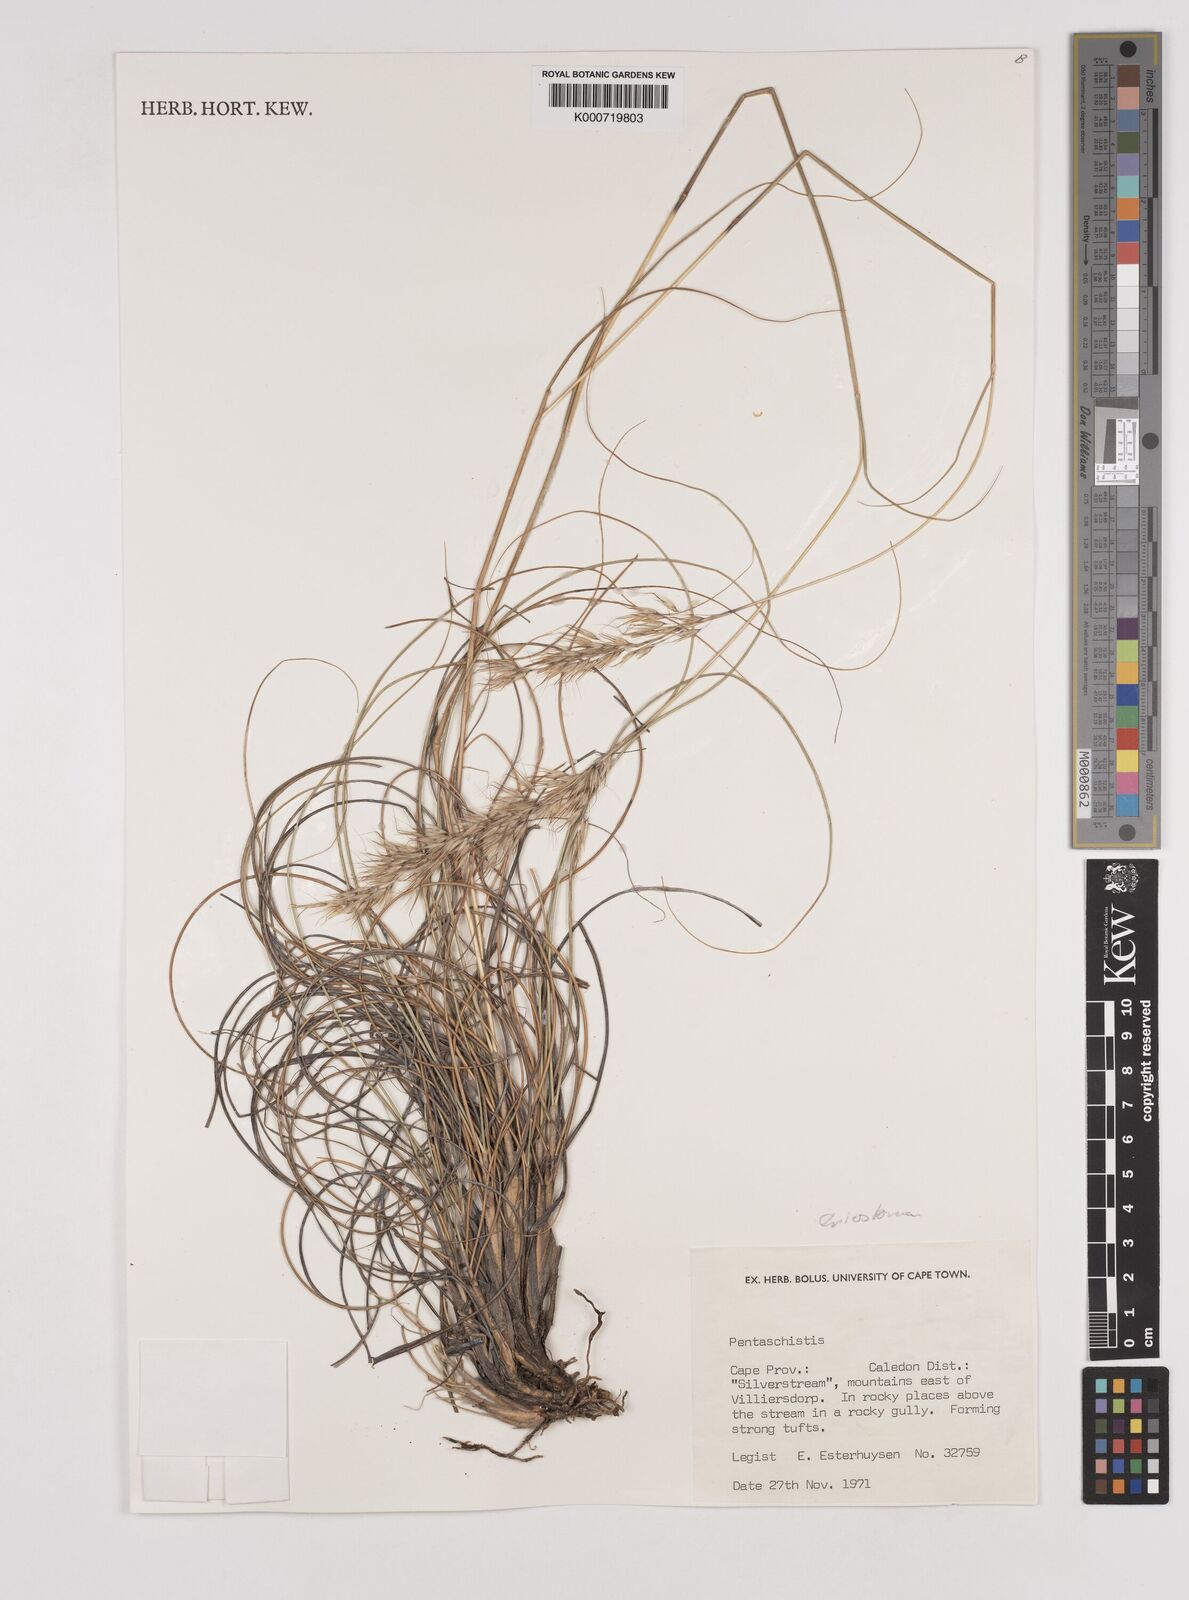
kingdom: Plantae
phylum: Tracheophyta
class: Liliopsida
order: Poales
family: Poaceae
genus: Pentameris
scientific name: Pentameris eriostoma
